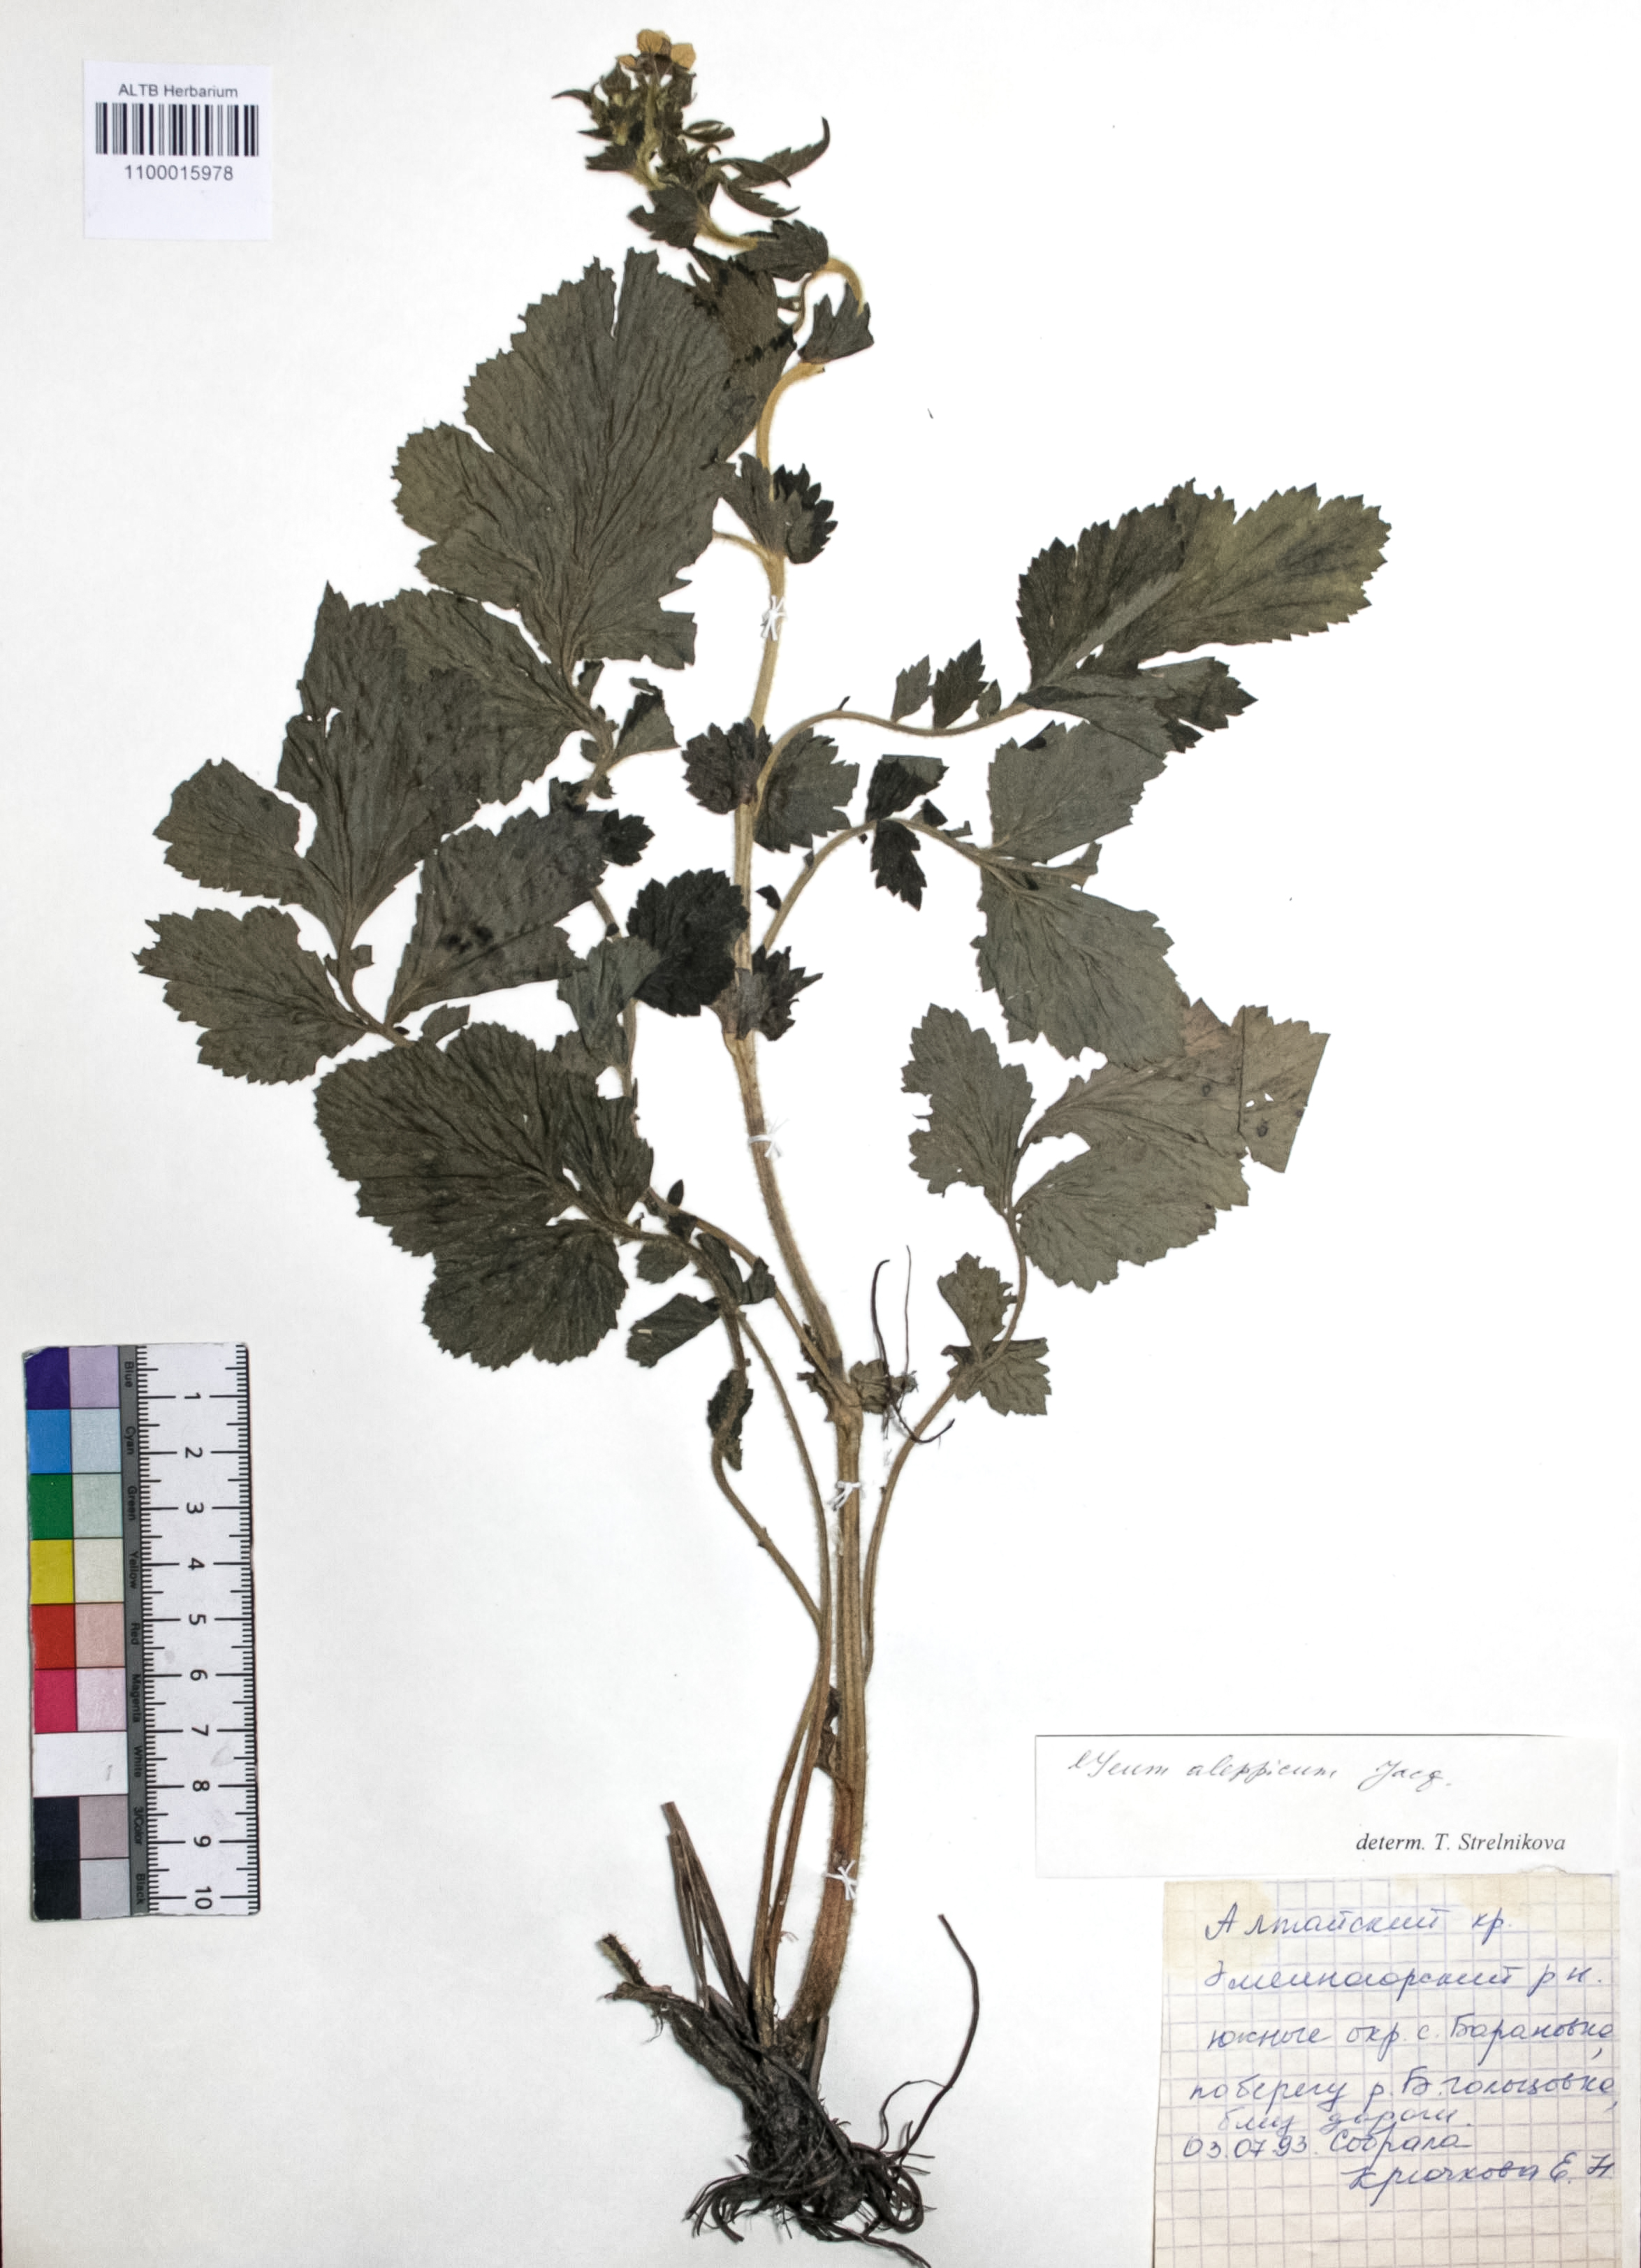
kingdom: Plantae
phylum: Tracheophyta
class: Magnoliopsida
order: Rosales
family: Rosaceae
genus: Geum
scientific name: Geum aleppicum
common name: Yellow avens
